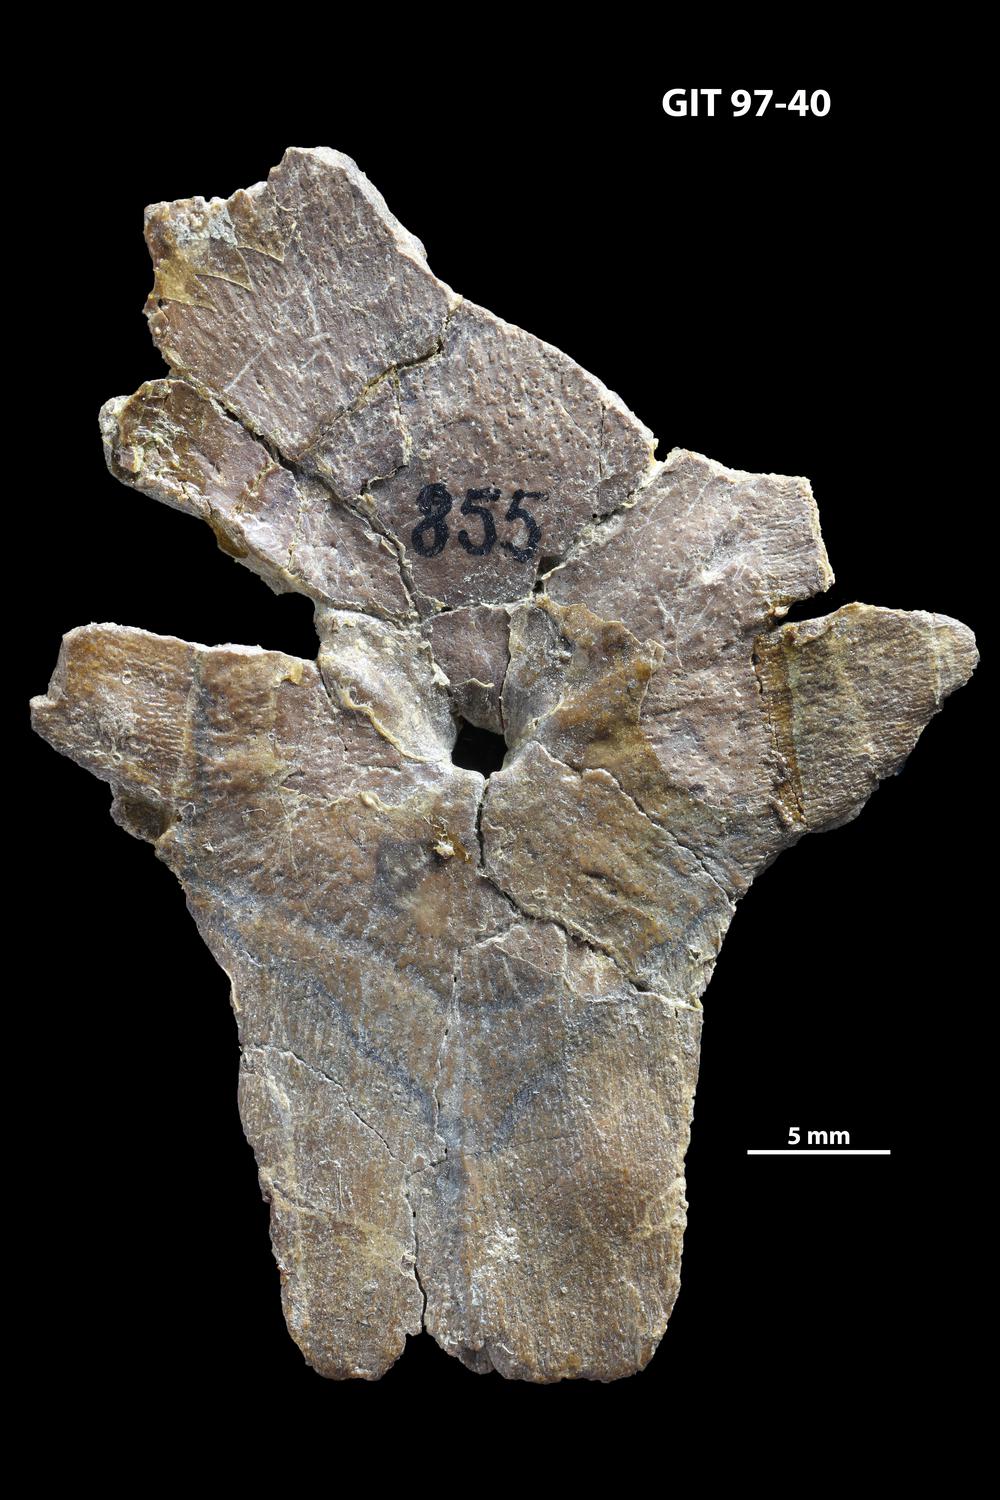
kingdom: Animalia
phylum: Chordata
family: Holonematidae
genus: Holonema
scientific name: Holonema
